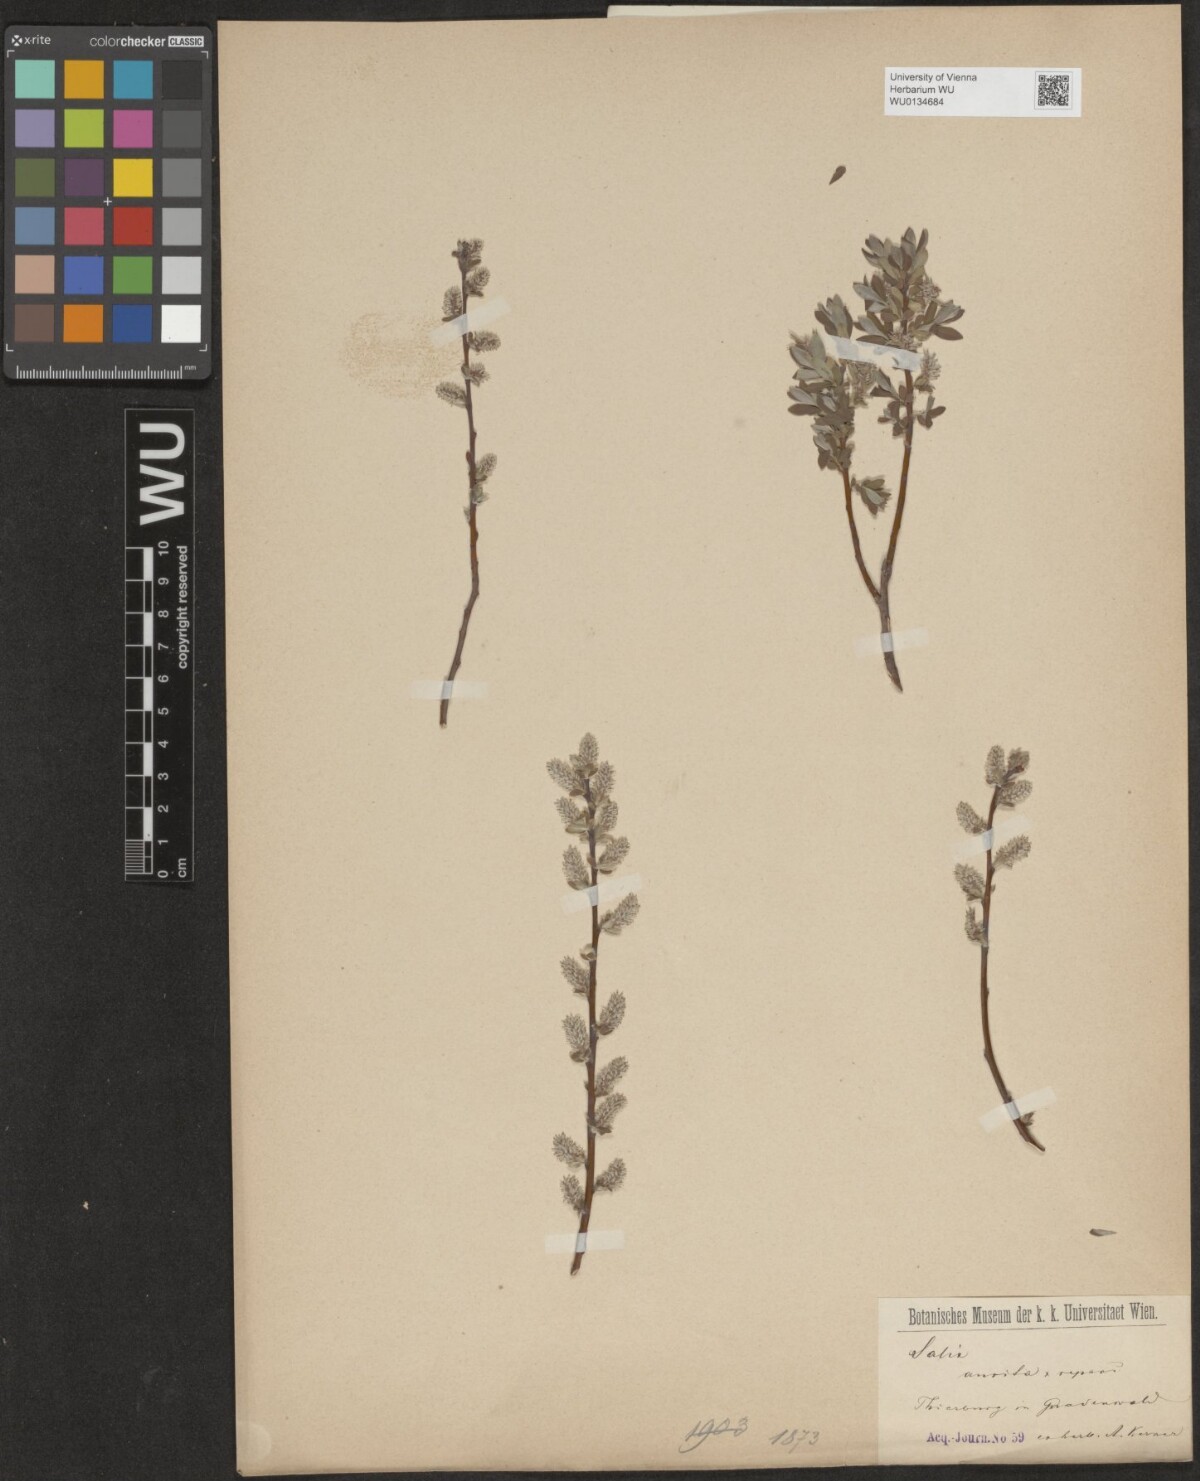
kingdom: Plantae
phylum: Tracheophyta
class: Magnoliopsida
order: Malpighiales
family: Salicaceae
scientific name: Salicaceae
